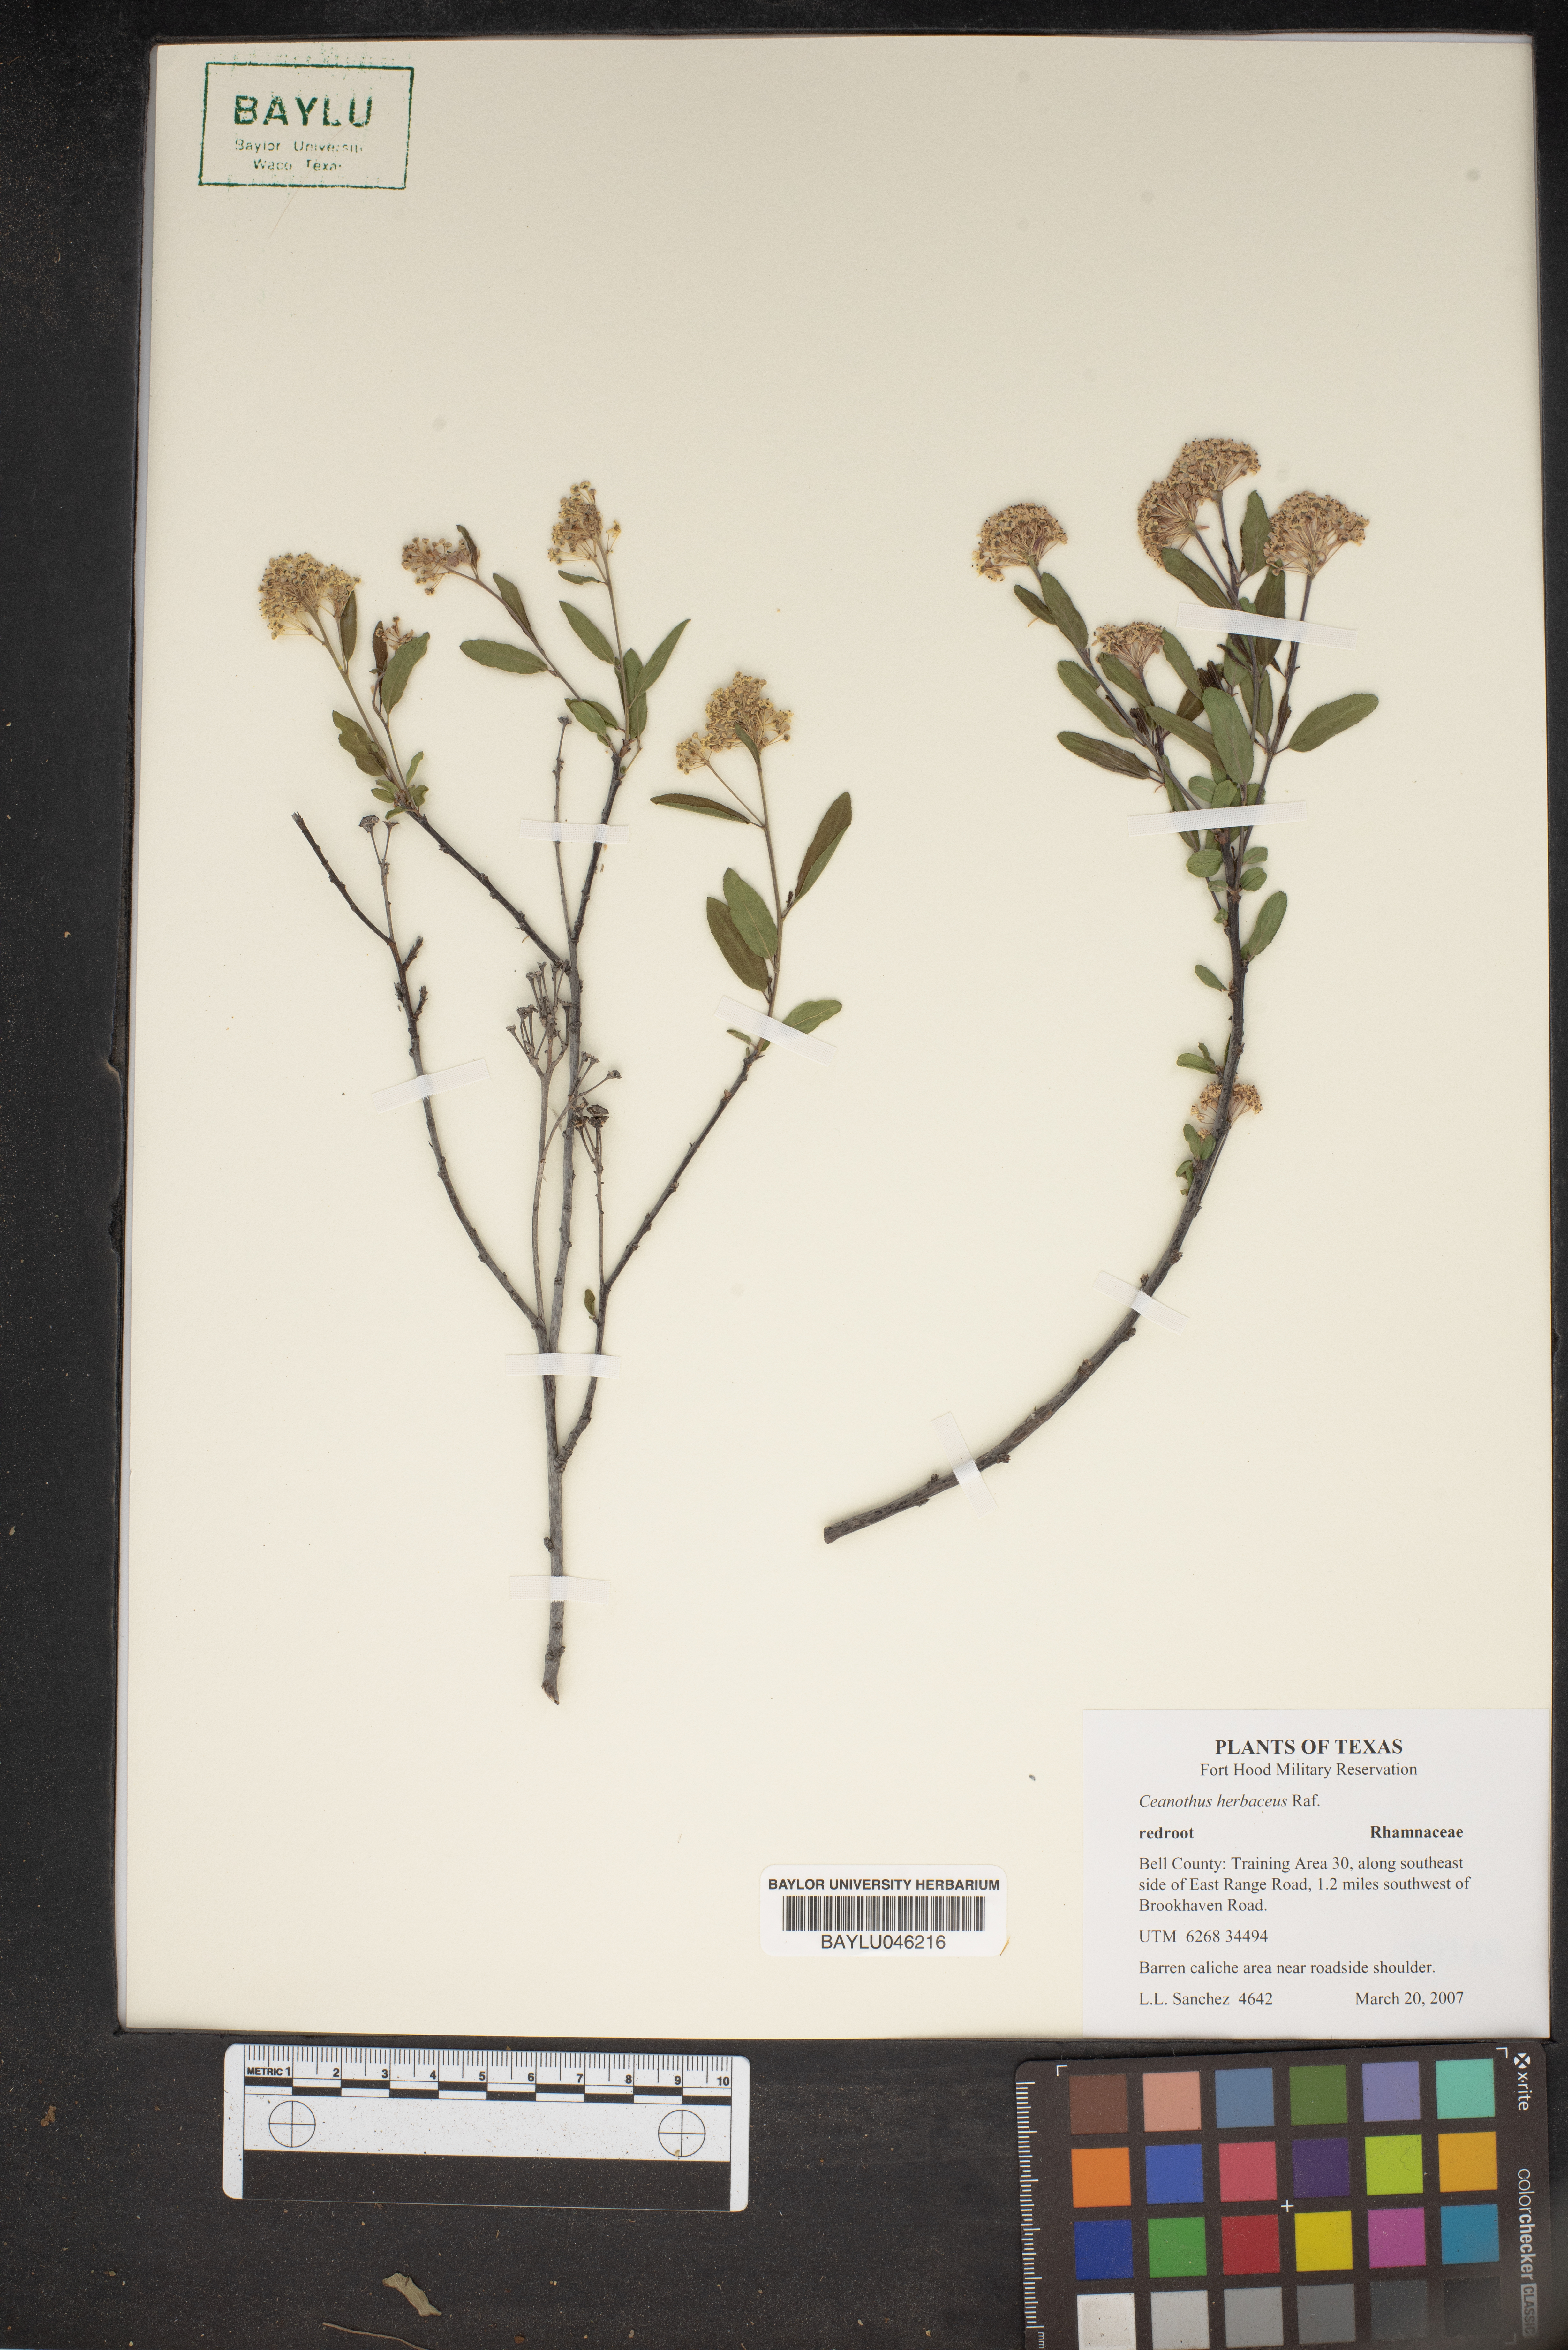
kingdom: Plantae
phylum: Tracheophyta
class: Magnoliopsida
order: Rosales
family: Rhamnaceae
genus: Ceanothus
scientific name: Ceanothus herbaceus
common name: Inland ceanothus
